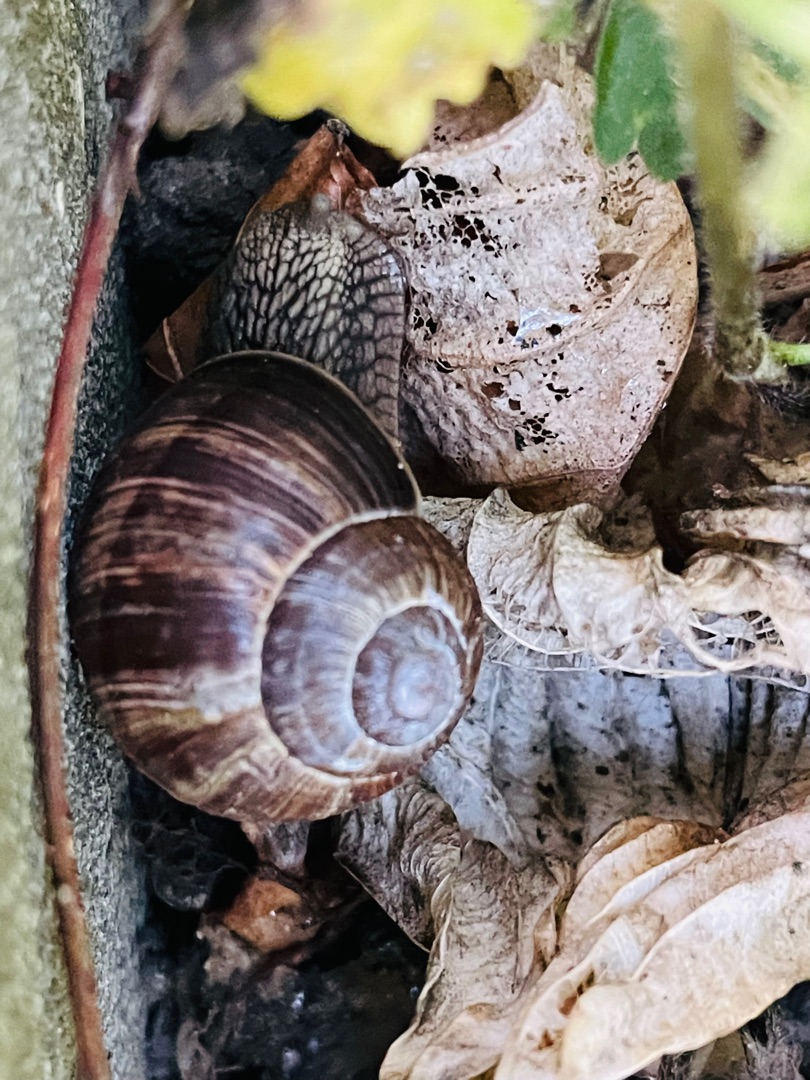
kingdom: Animalia
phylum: Mollusca
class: Gastropoda
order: Stylommatophora
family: Helicidae
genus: Helix
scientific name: Helix pomatia
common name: Vinbjergsnegl
